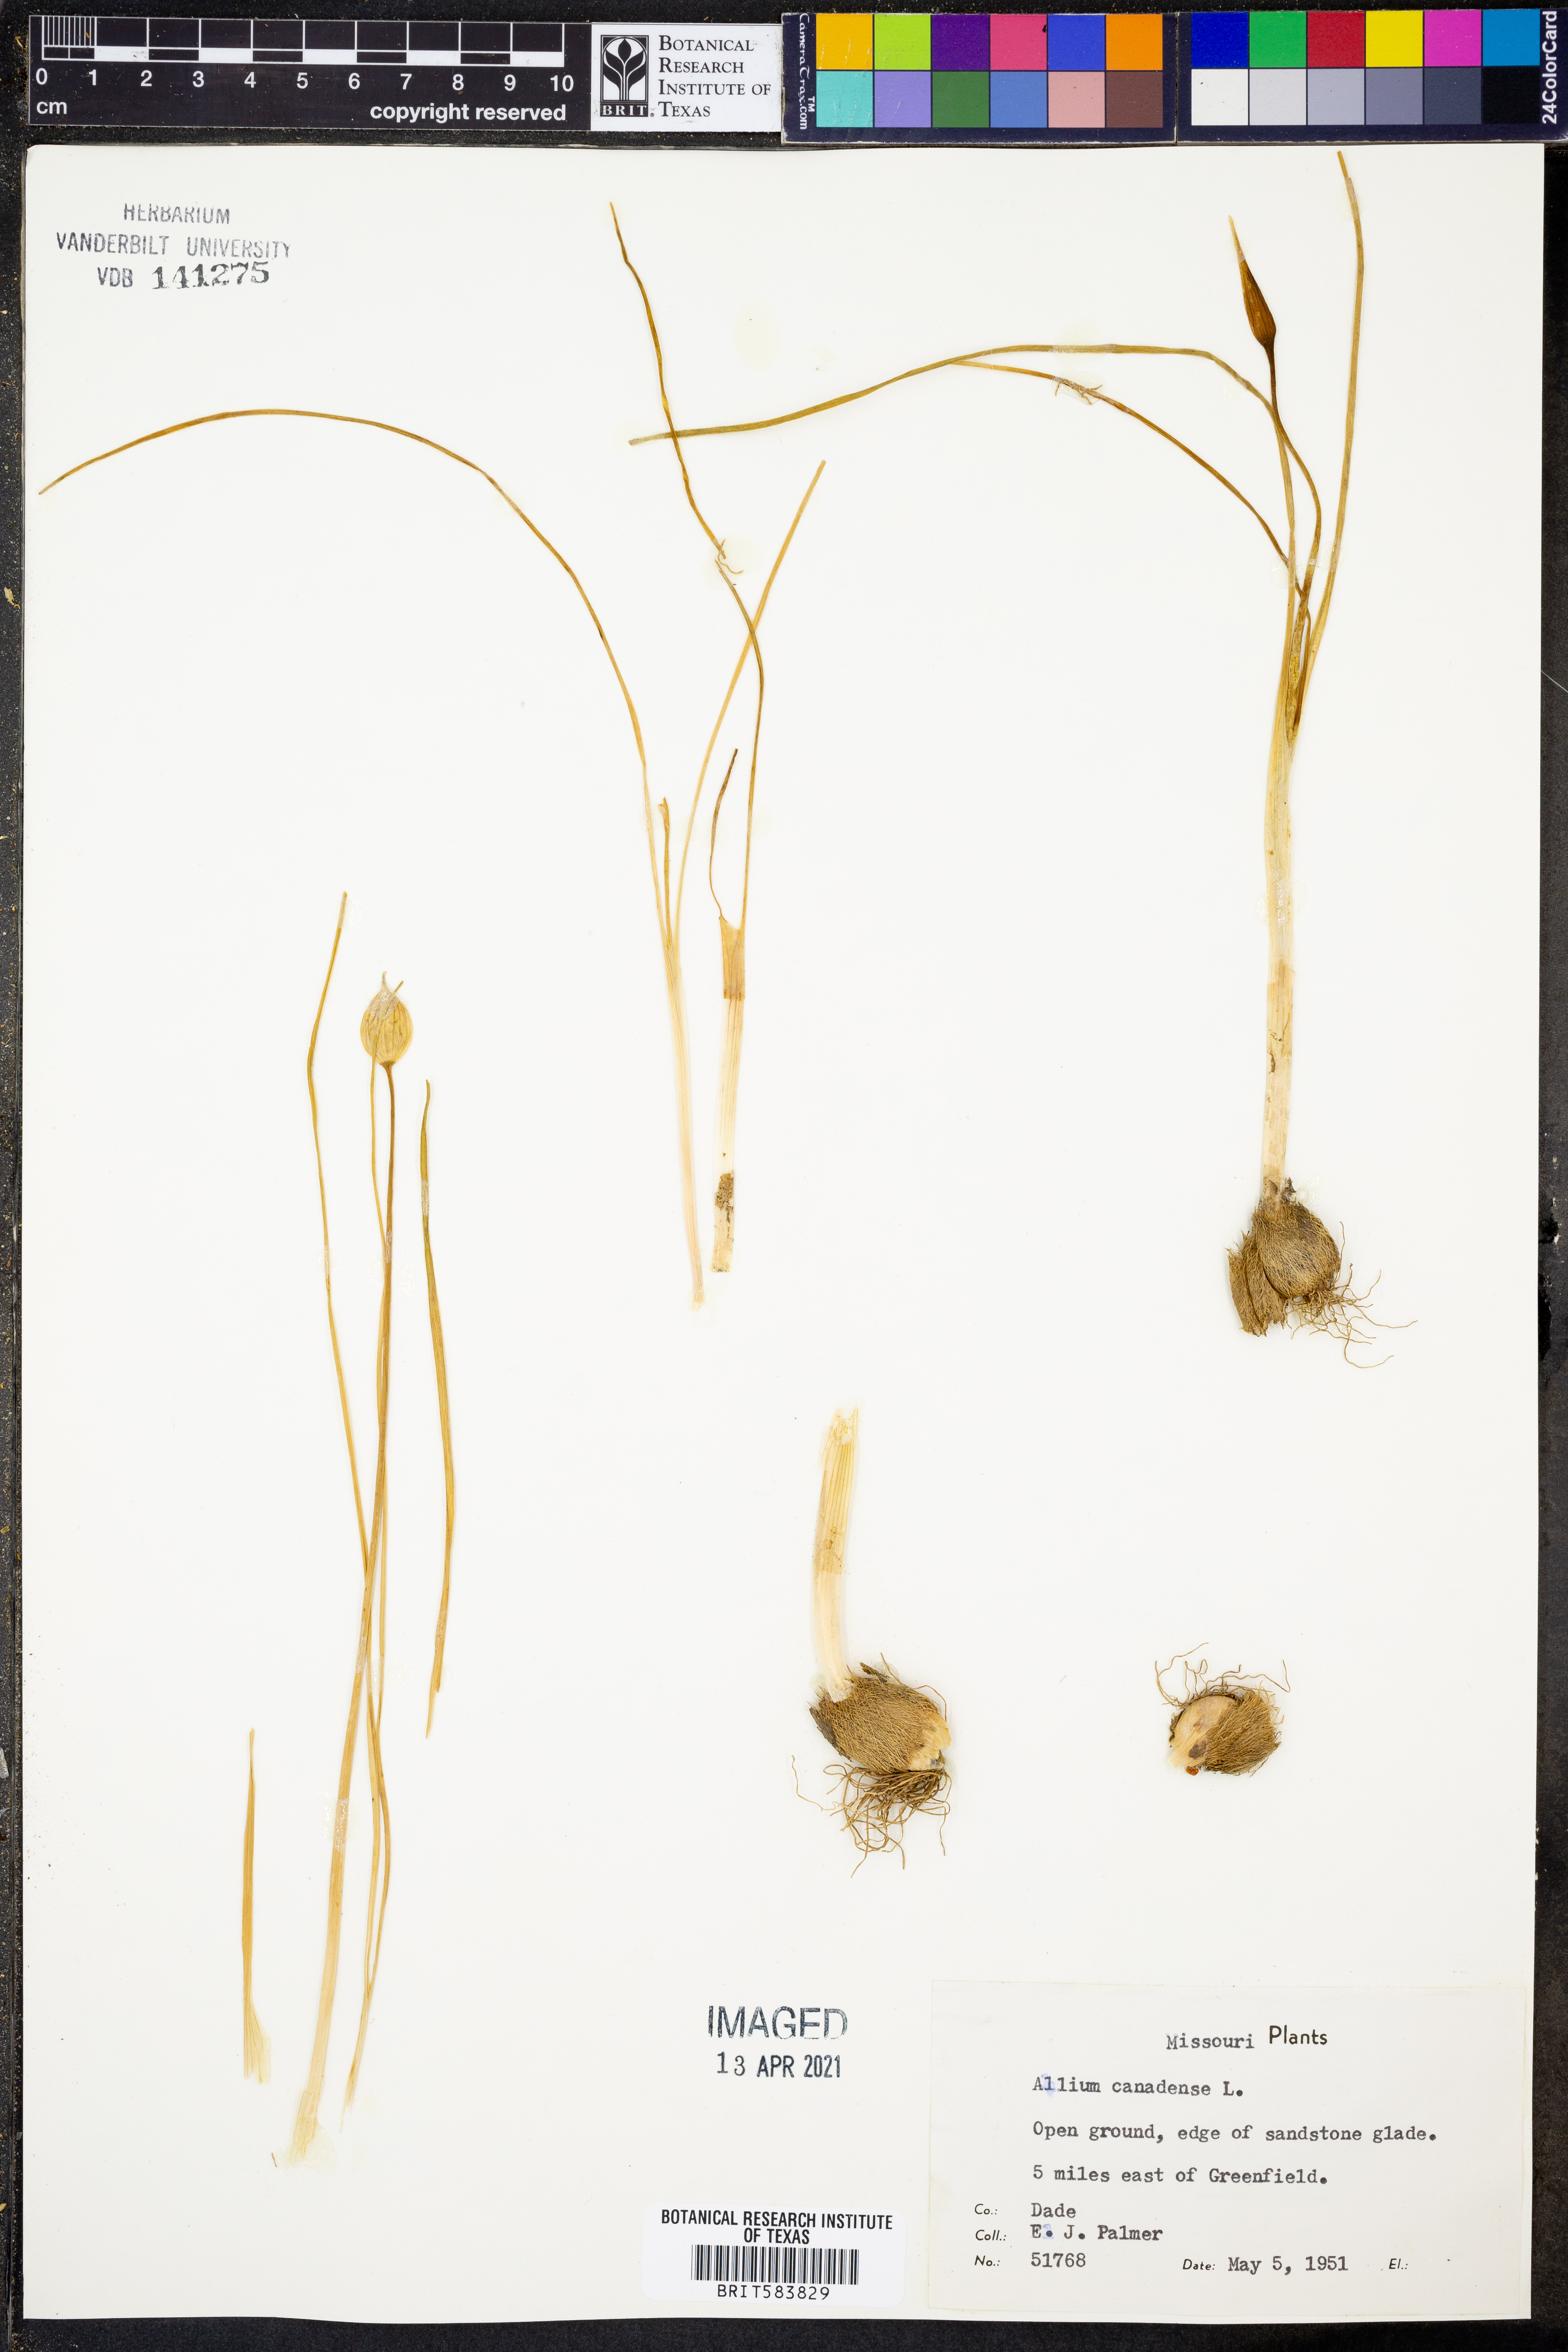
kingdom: Plantae
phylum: Tracheophyta
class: Liliopsida
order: Asparagales
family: Amaryllidaceae
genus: Allium
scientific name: Allium canadense
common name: Meadow garlic
